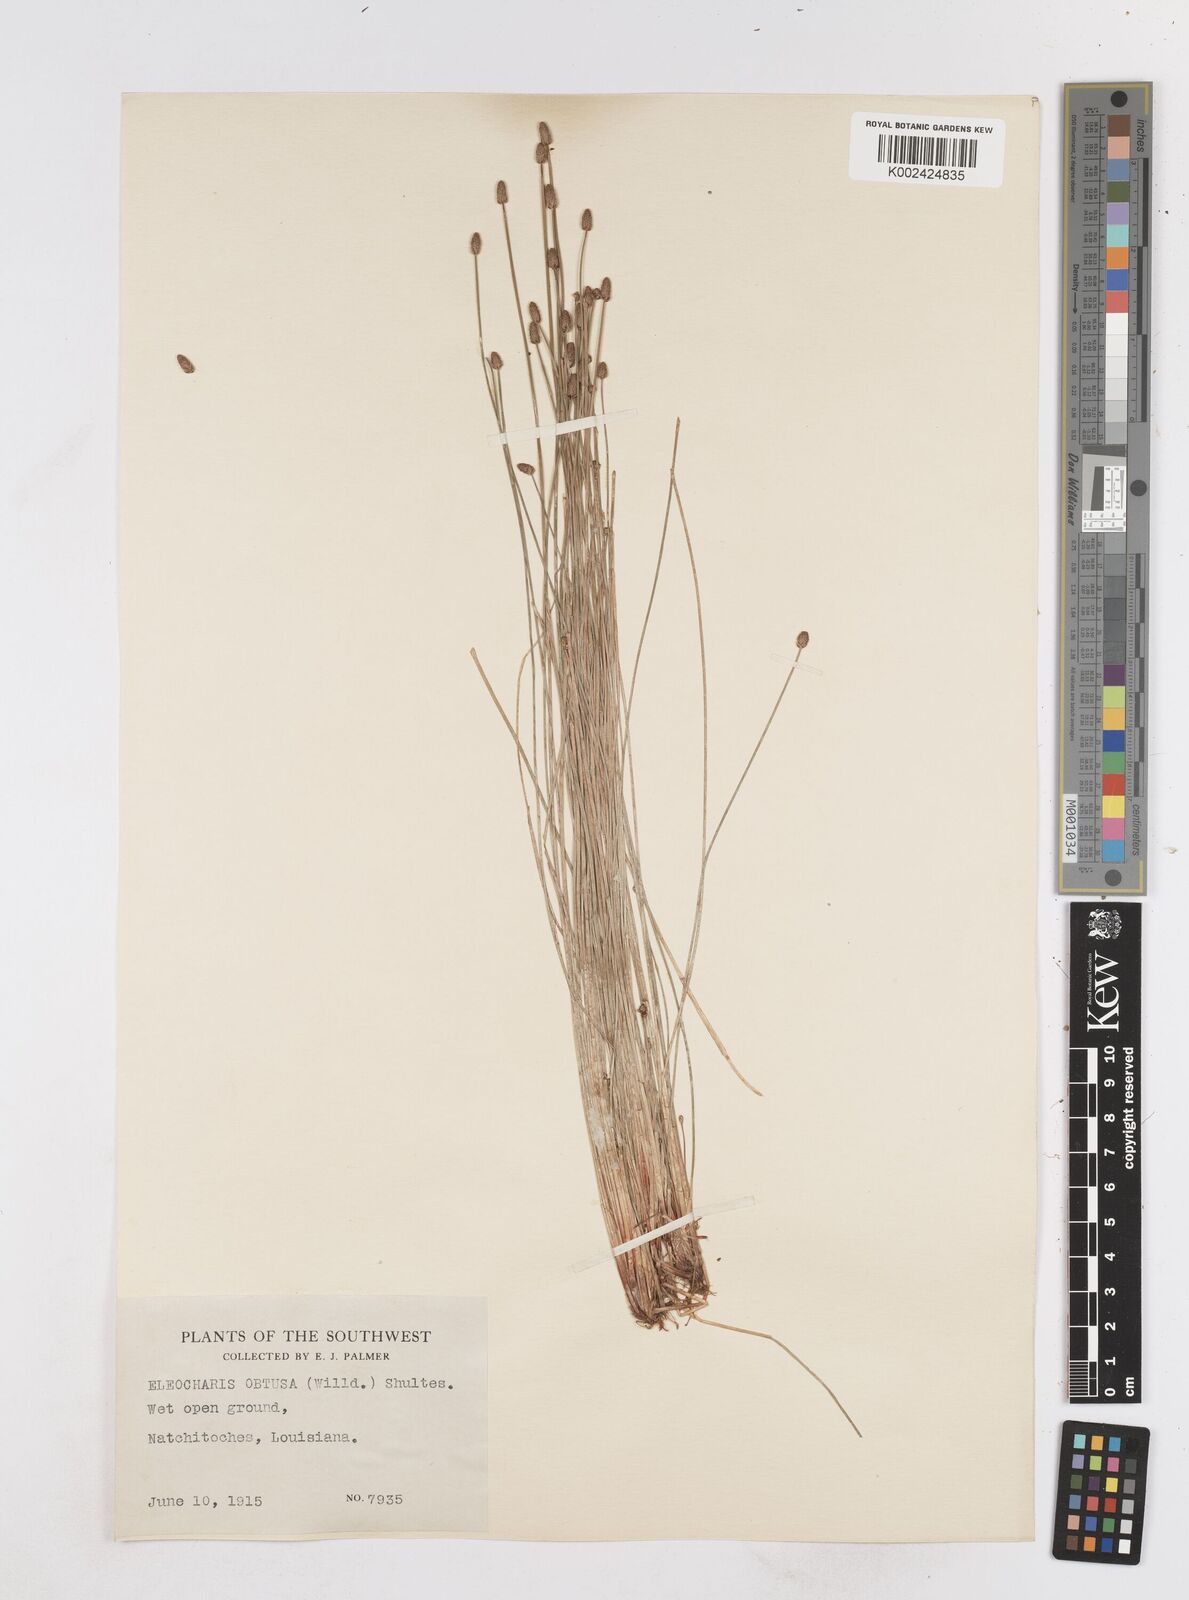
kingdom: Plantae
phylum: Tracheophyta
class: Liliopsida
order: Poales
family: Cyperaceae
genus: Eleocharis
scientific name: Eleocharis obtusa
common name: Blunt spikerush
